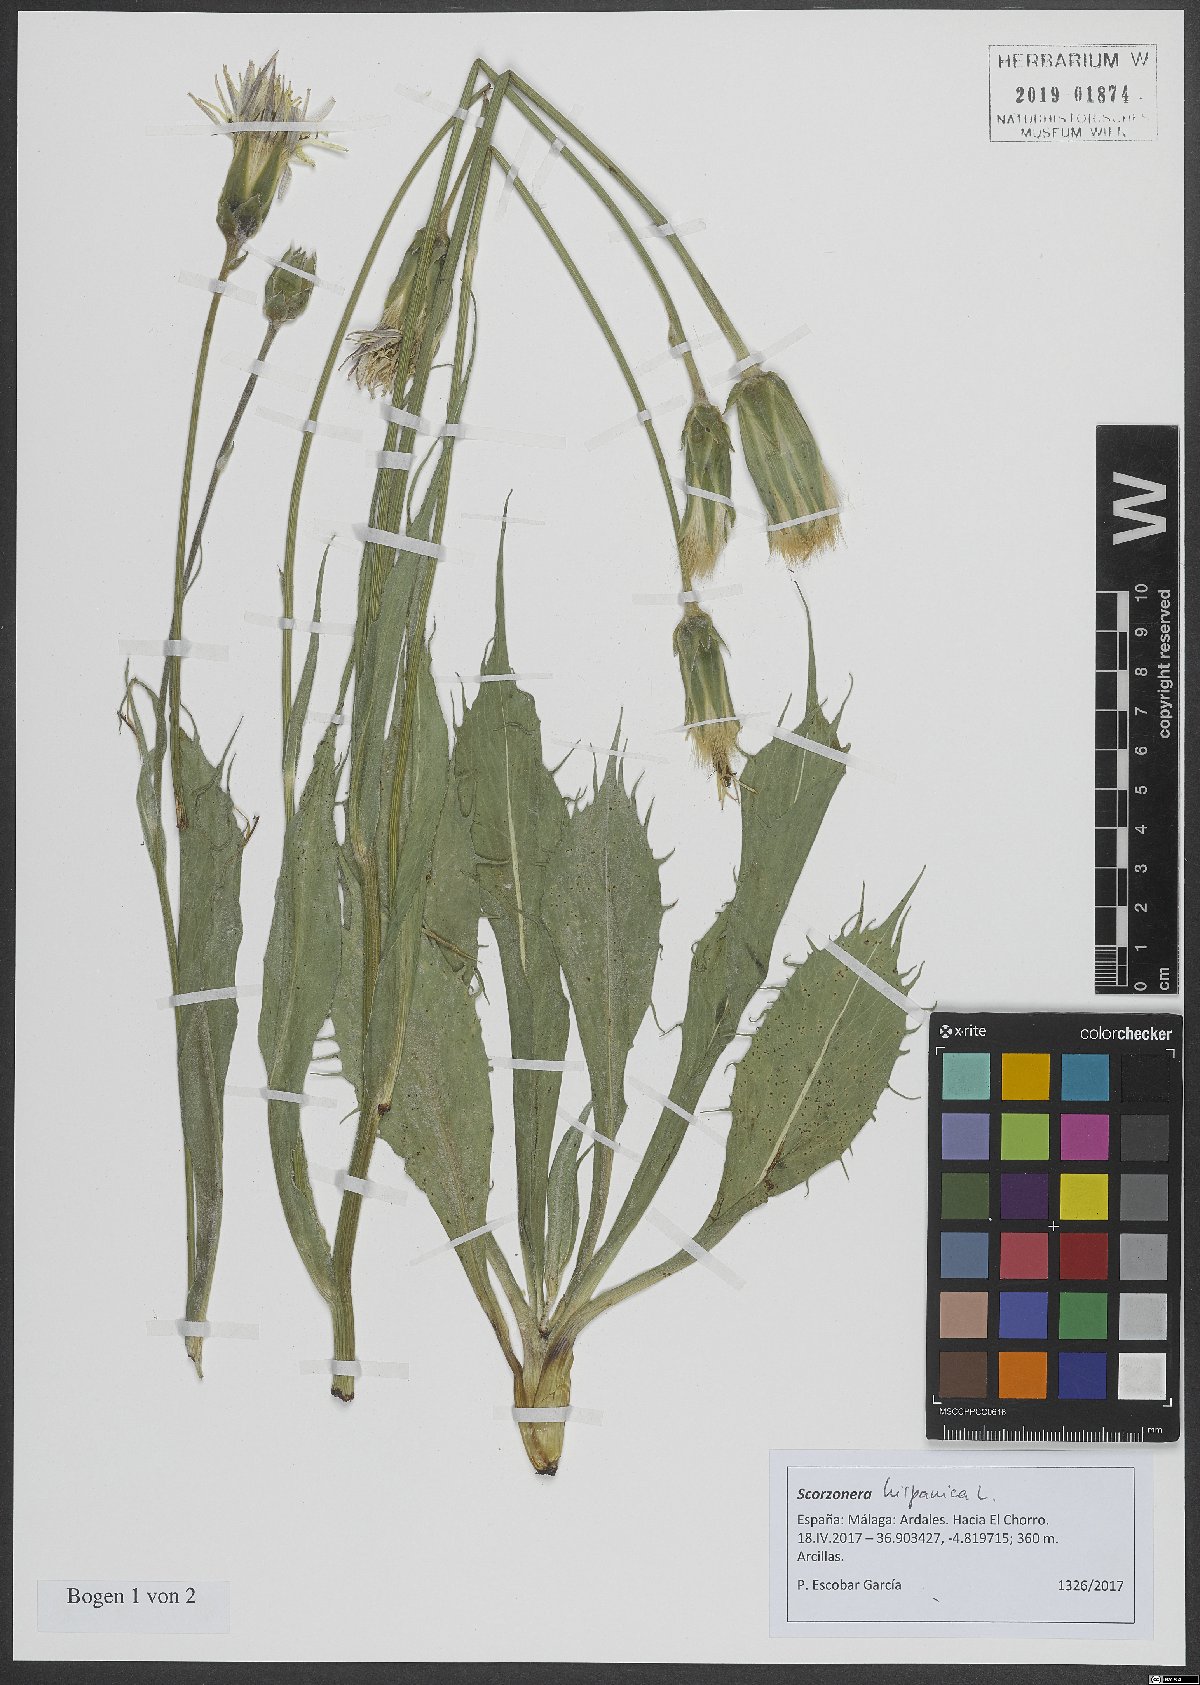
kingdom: Plantae
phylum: Tracheophyta
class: Magnoliopsida
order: Asterales
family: Asteraceae
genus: Pseudopodospermum
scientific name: Pseudopodospermum hispanicum
